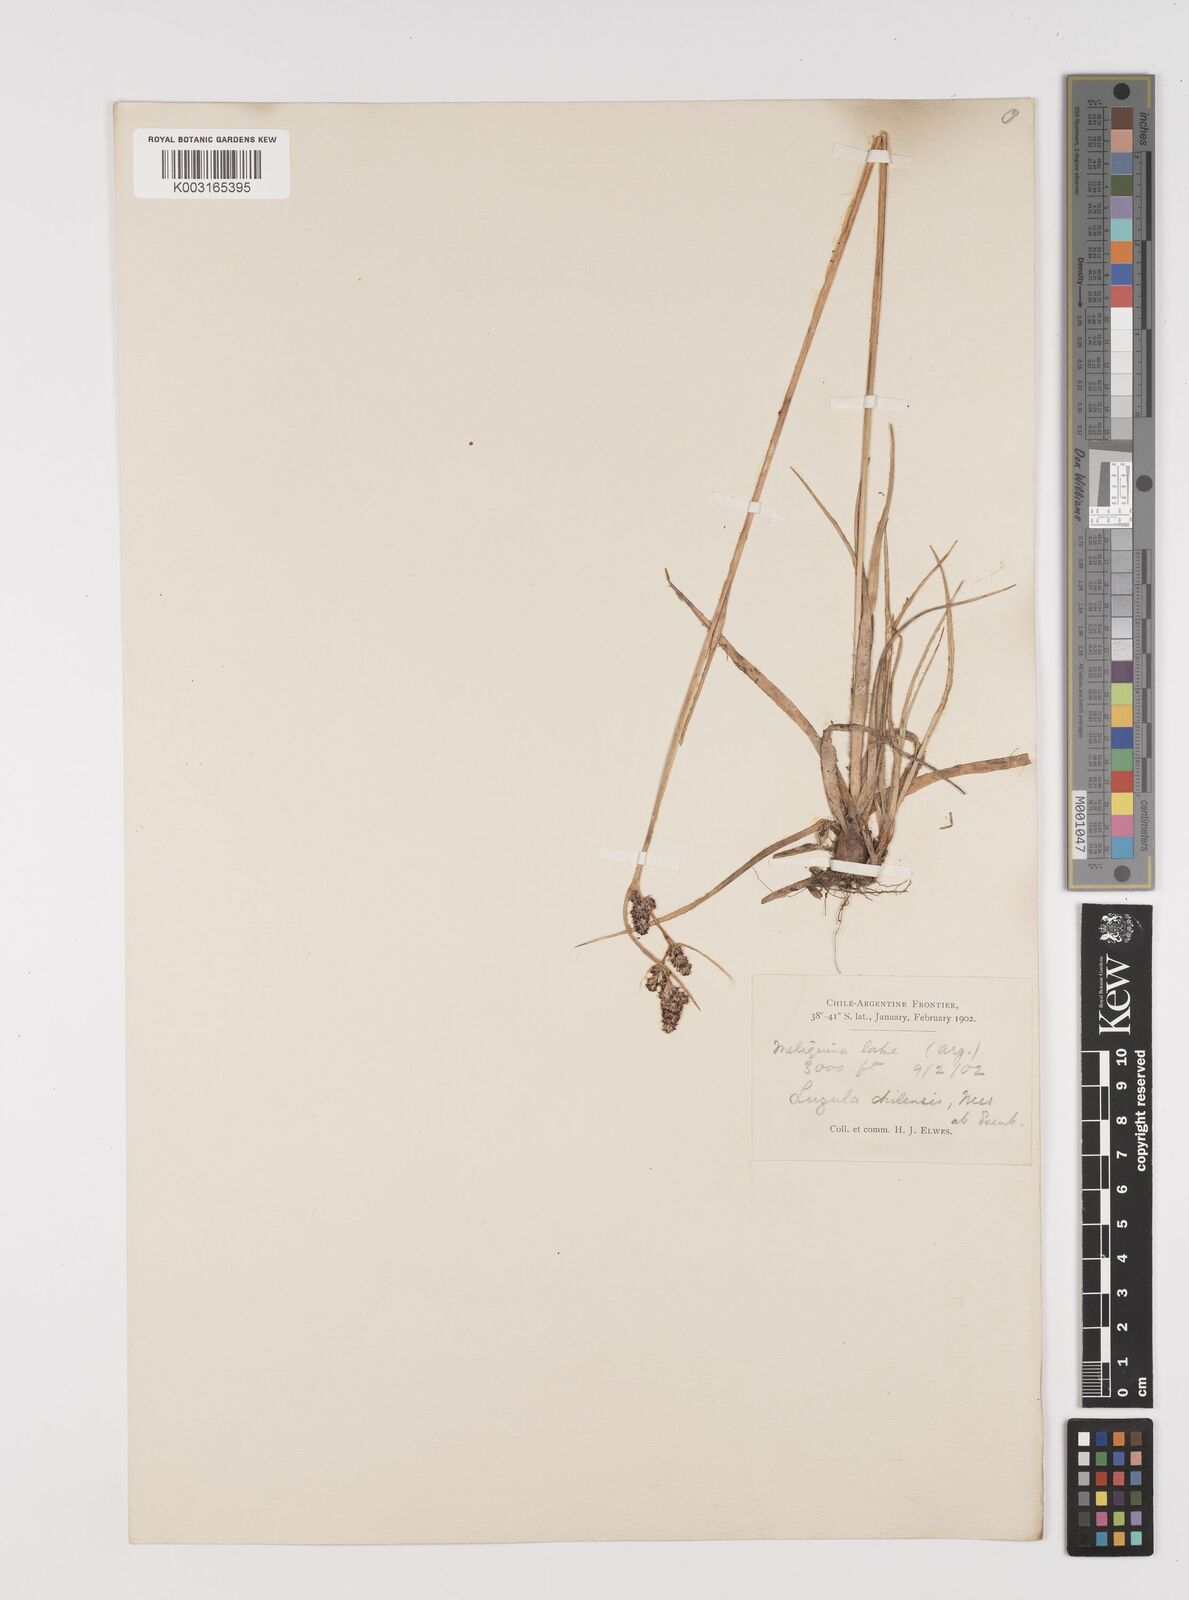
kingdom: Plantae
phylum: Tracheophyta
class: Liliopsida
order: Poales
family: Juncaceae
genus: Luzula
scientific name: Luzula chilensis
